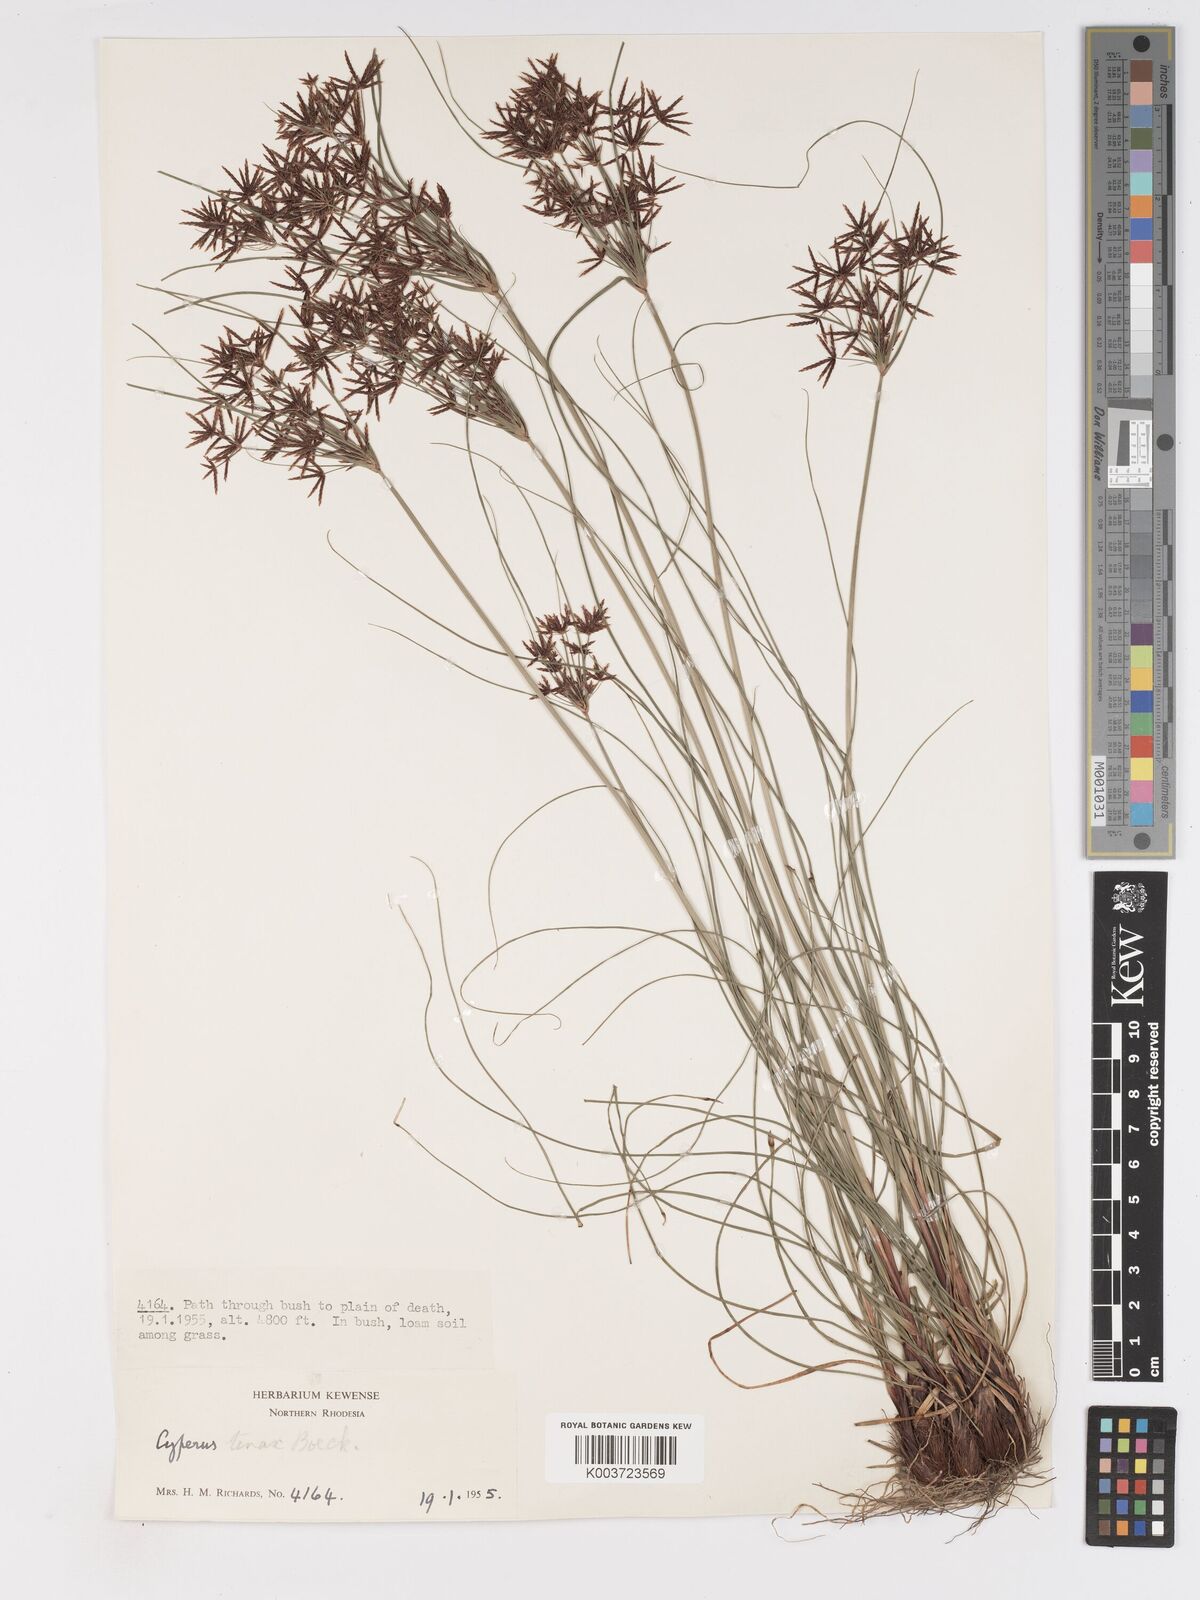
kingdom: Plantae
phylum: Tracheophyta
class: Liliopsida
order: Poales
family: Cyperaceae
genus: Cyperus
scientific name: Cyperus tenax
